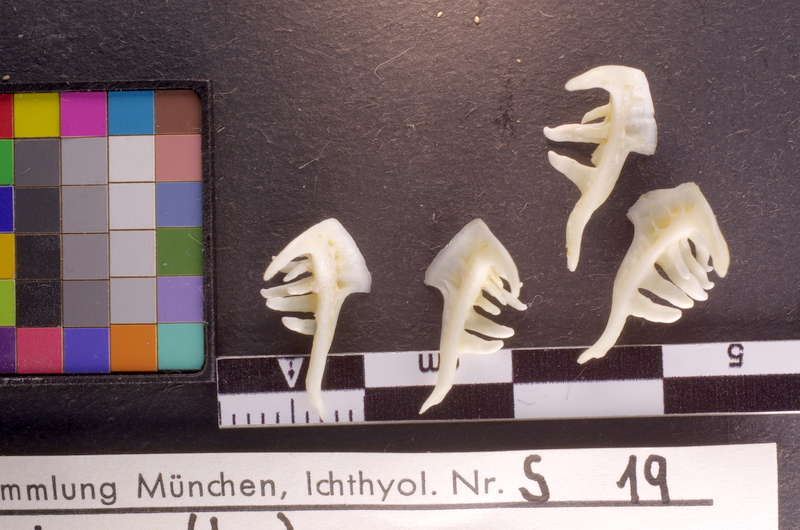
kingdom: Animalia
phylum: Chordata
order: Cypriniformes
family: Cyprinidae
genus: Leuciscus
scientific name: Leuciscus leuciscus
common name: Dace
